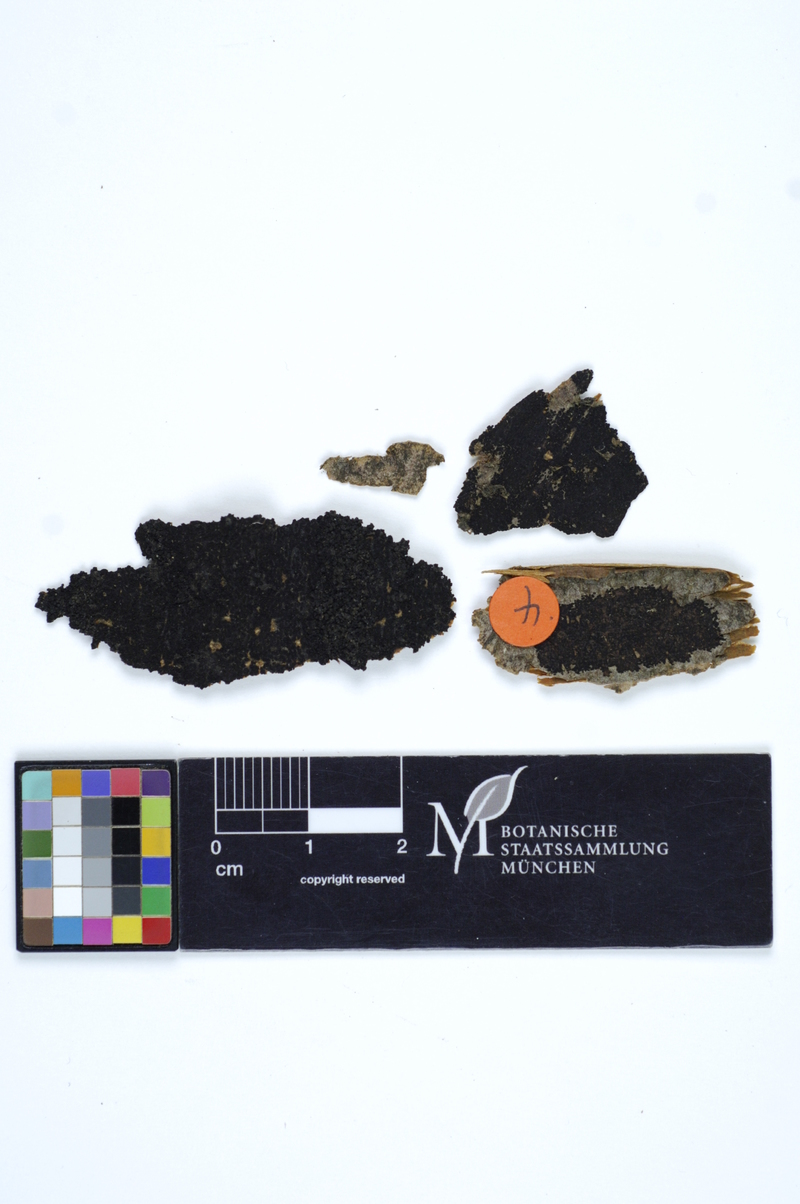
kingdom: Plantae
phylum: Tracheophyta
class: Magnoliopsida
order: Fagales
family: Fagaceae
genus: Fagus
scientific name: Fagus sylvatica
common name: Beech
